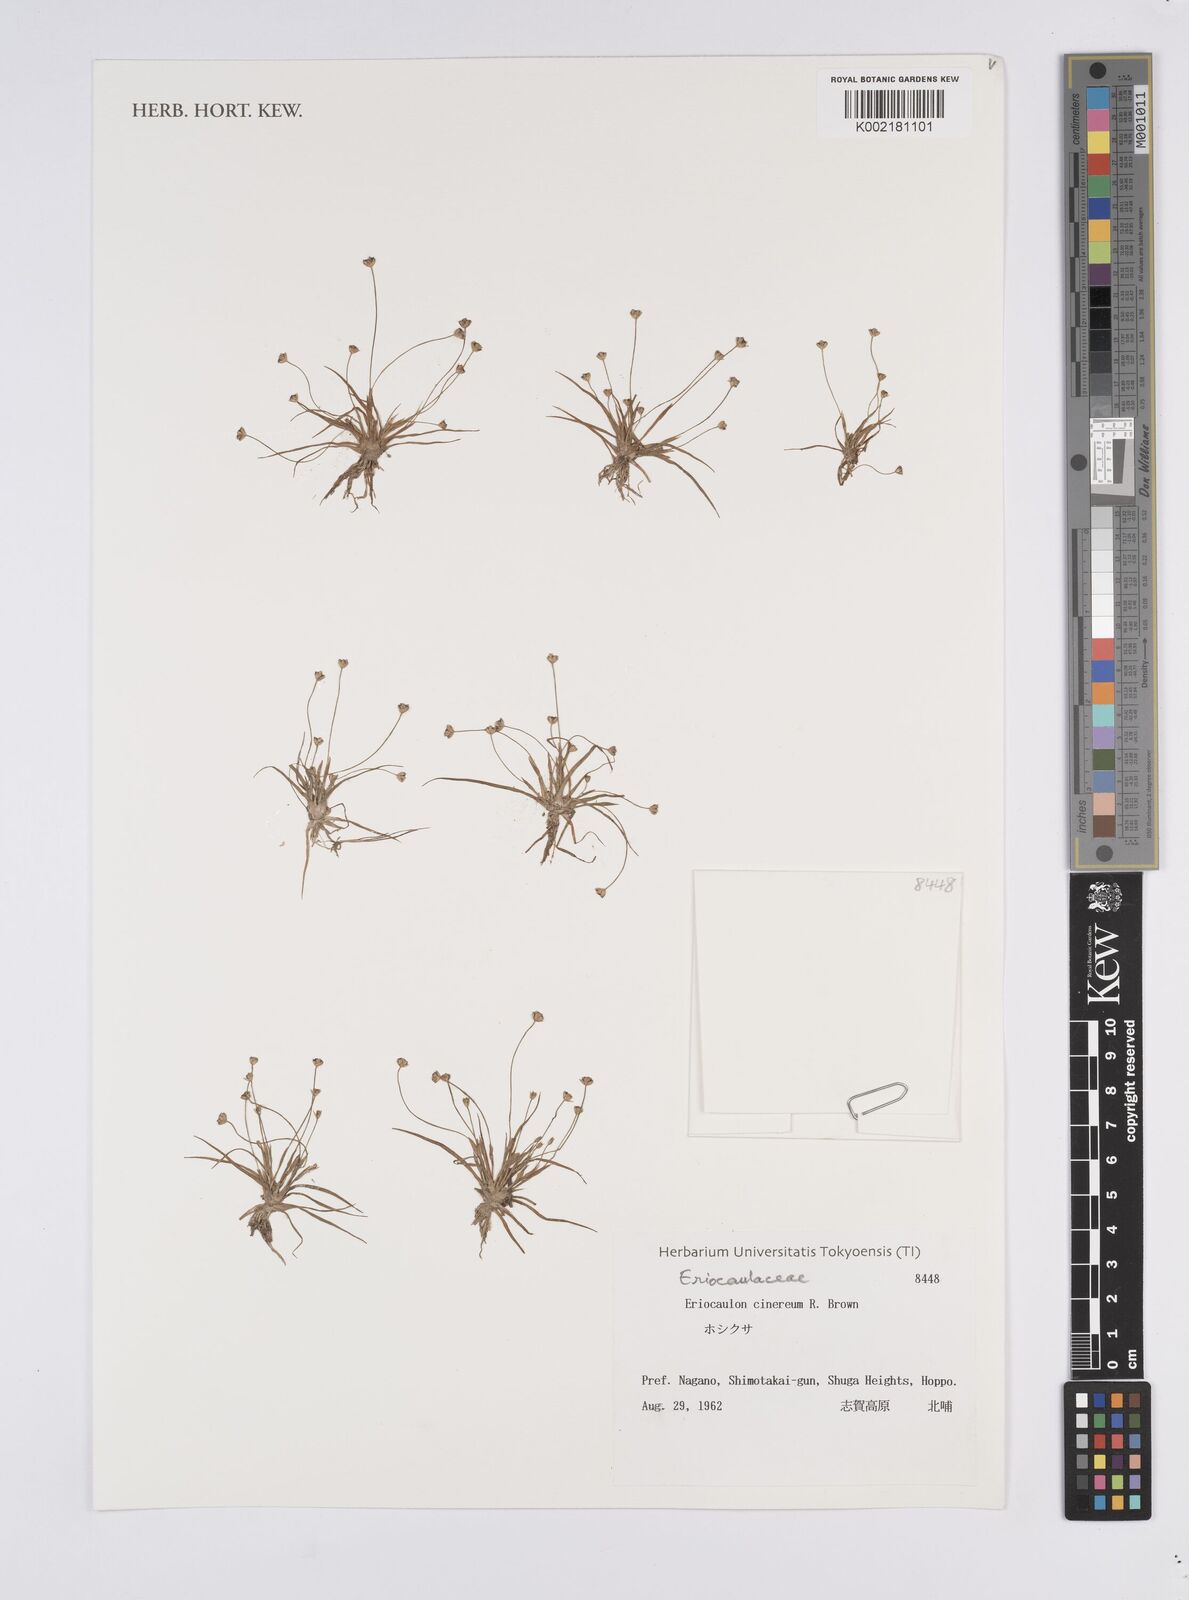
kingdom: Plantae
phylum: Tracheophyta
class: Liliopsida
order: Poales
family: Eriocaulaceae
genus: Eriocaulon
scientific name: Eriocaulon cinereum
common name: Ashy pipewort
